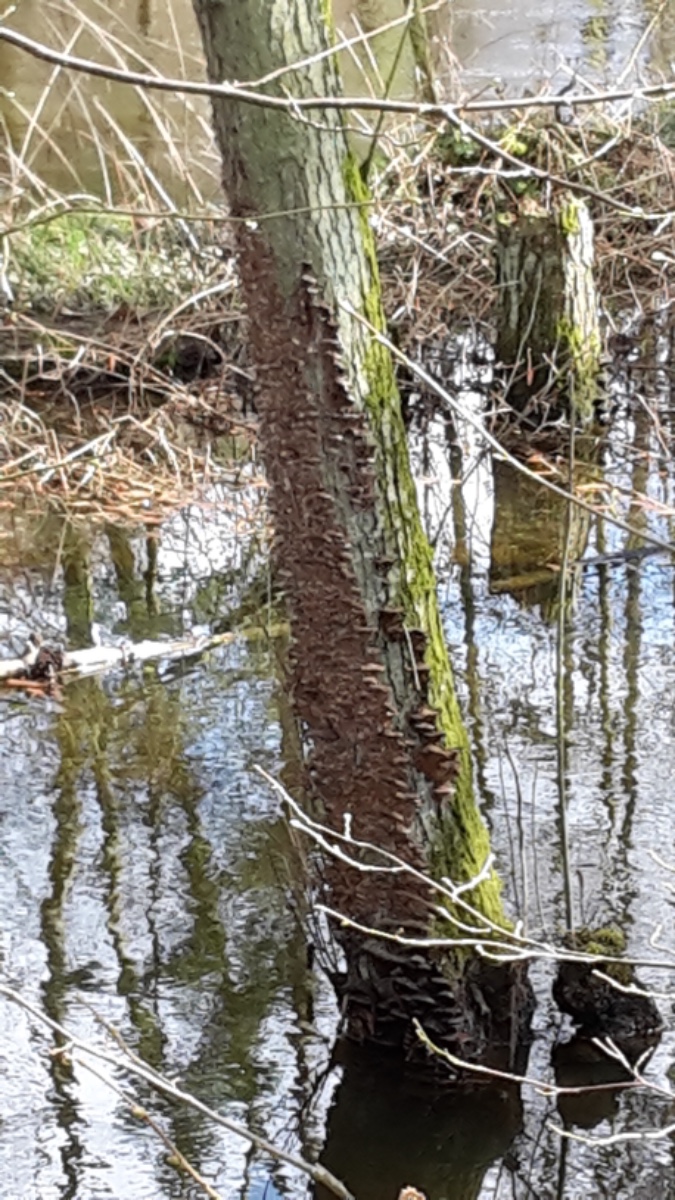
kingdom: Fungi
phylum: Basidiomycota
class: Agaricomycetes
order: Hymenochaetales
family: Hymenochaetaceae
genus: Xanthoporia
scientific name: Xanthoporia radiata
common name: elle-spejlporesvamp
